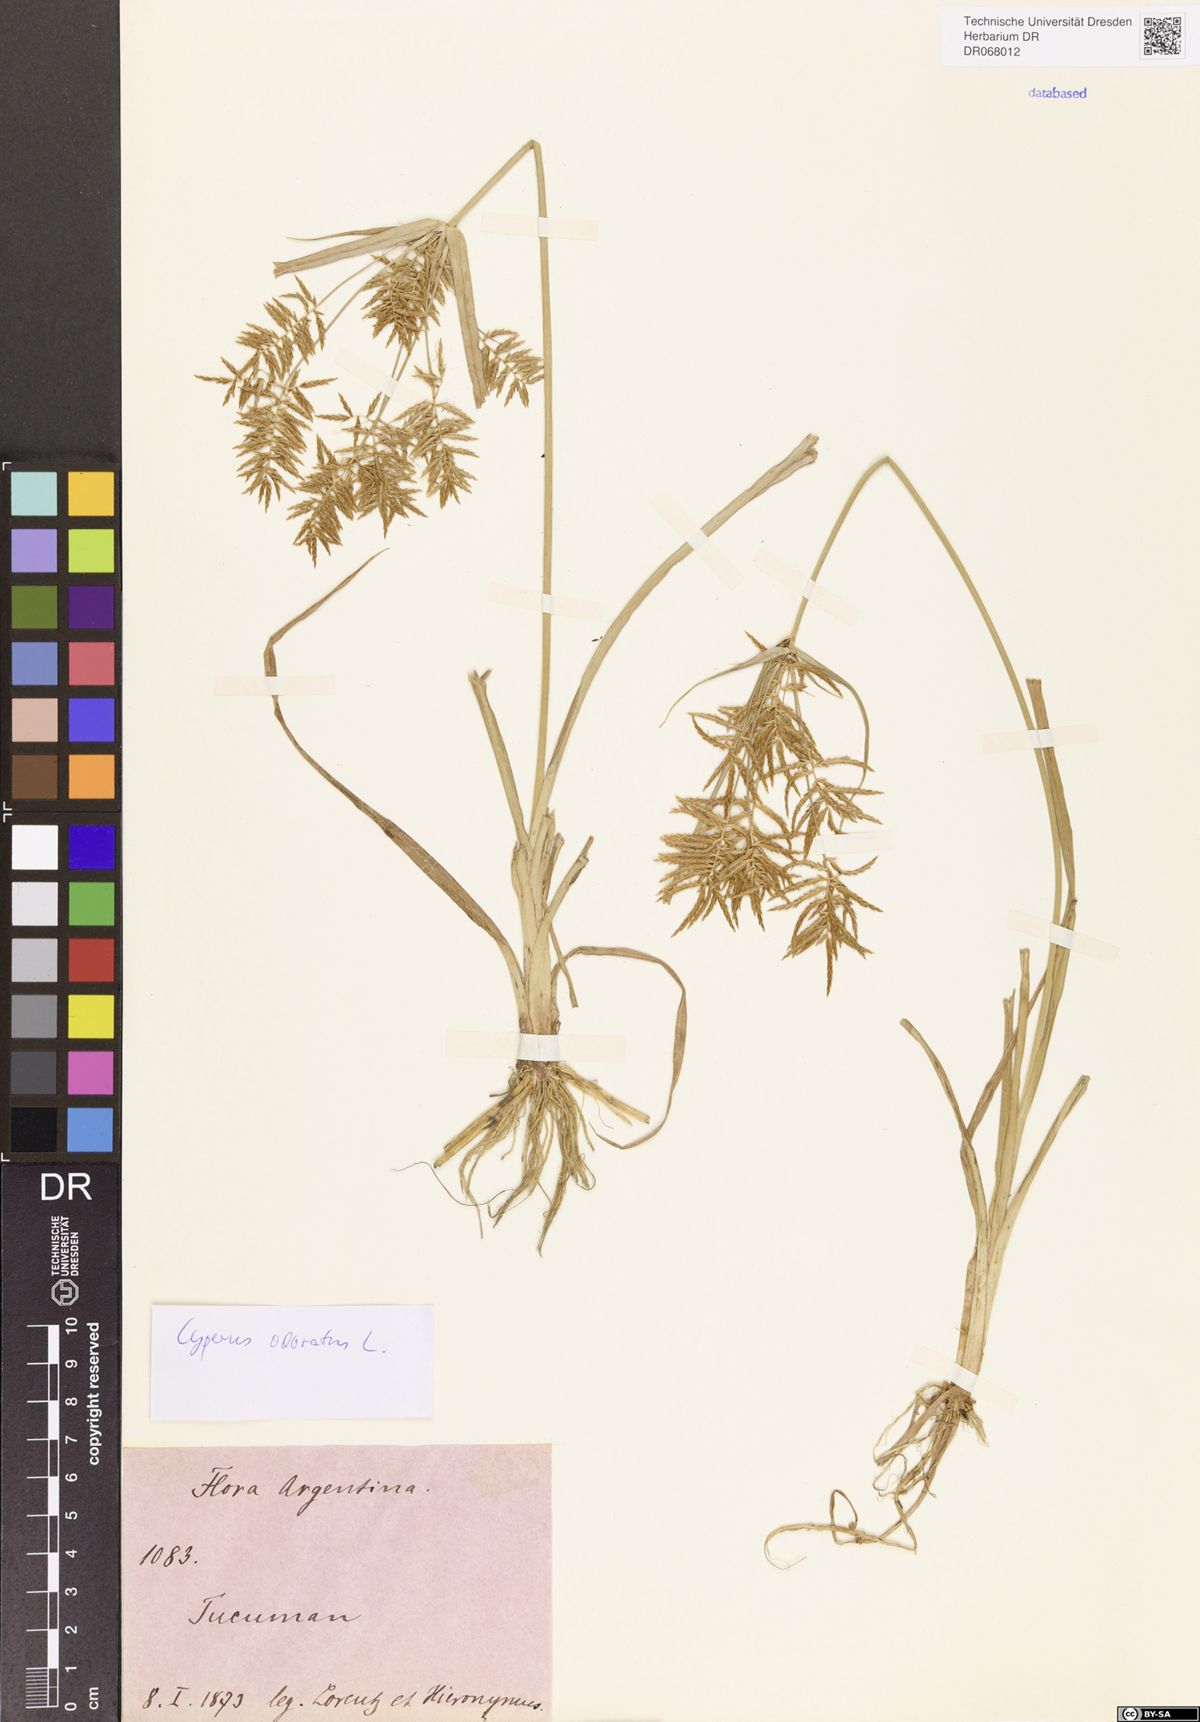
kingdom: Plantae
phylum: Tracheophyta
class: Liliopsida
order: Poales
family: Cyperaceae
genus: Cyperus
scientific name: Cyperus odoratus
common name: Fragrant flatsedge
